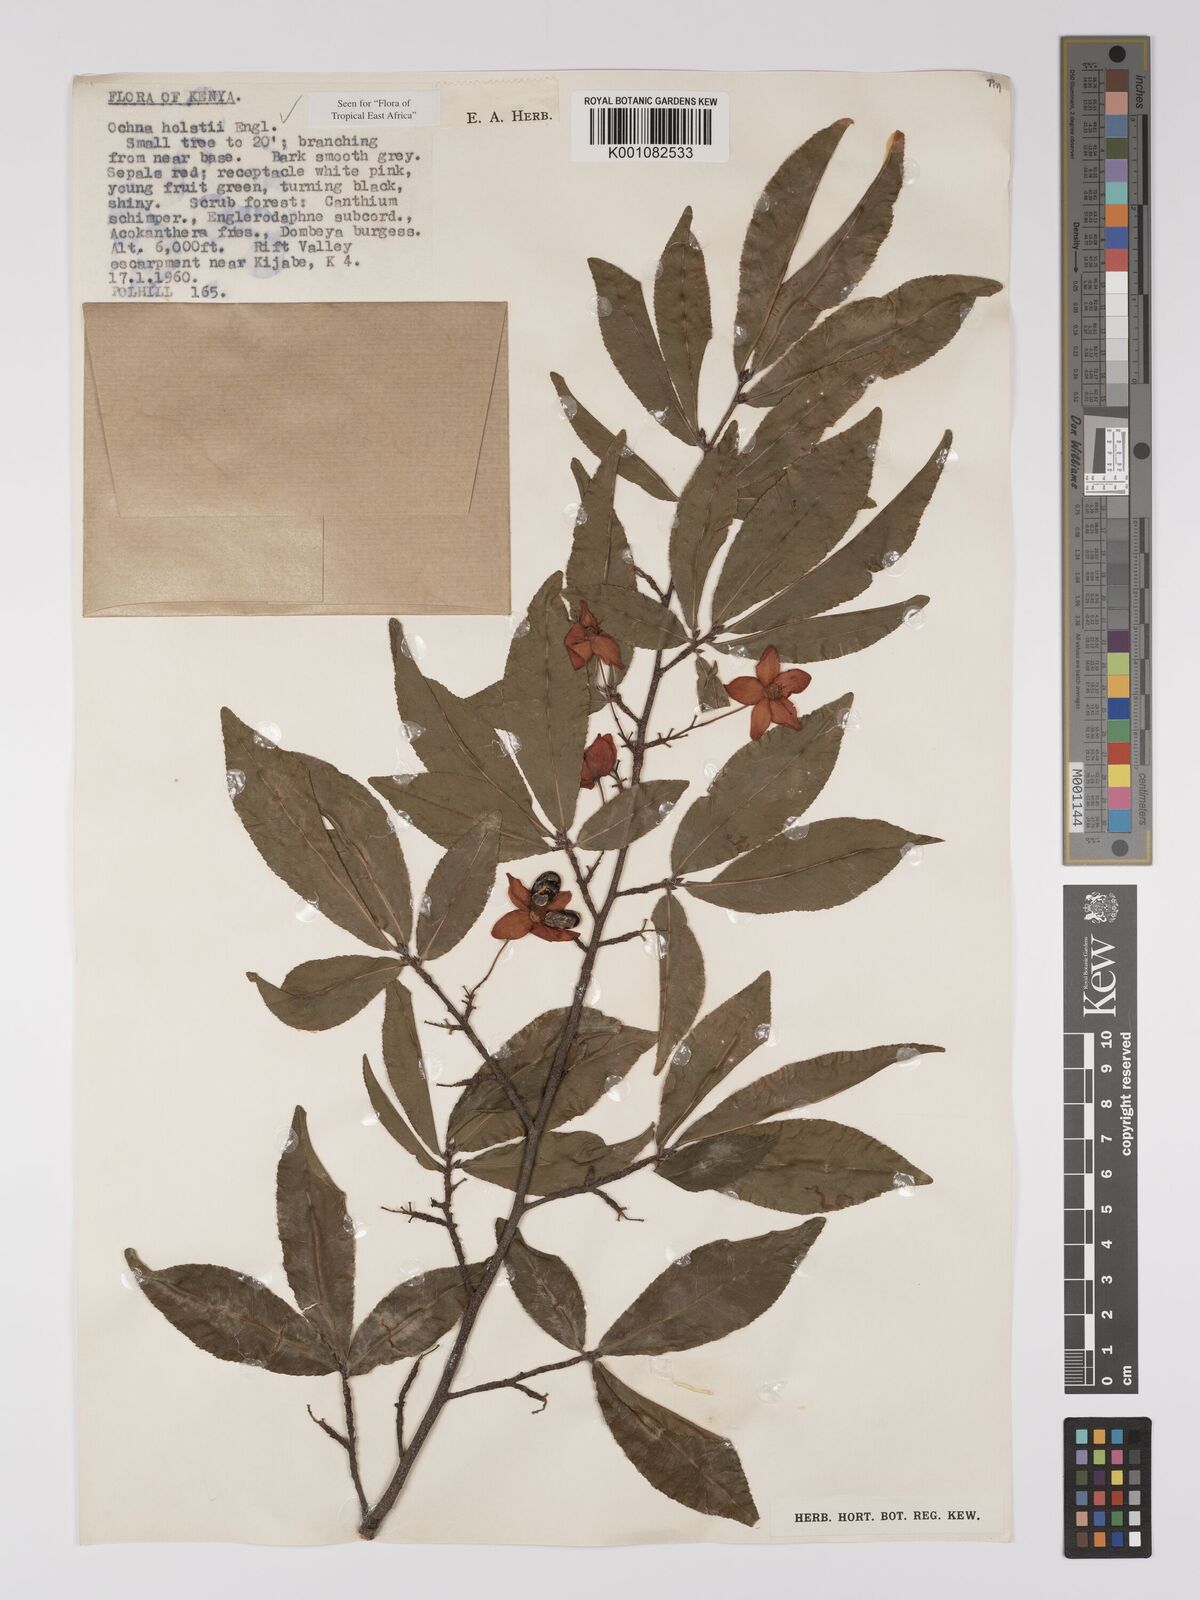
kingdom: Plantae
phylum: Tracheophyta
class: Magnoliopsida
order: Malpighiales
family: Ochnaceae
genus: Ochna
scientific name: Ochna holstii
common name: Red ironwood
